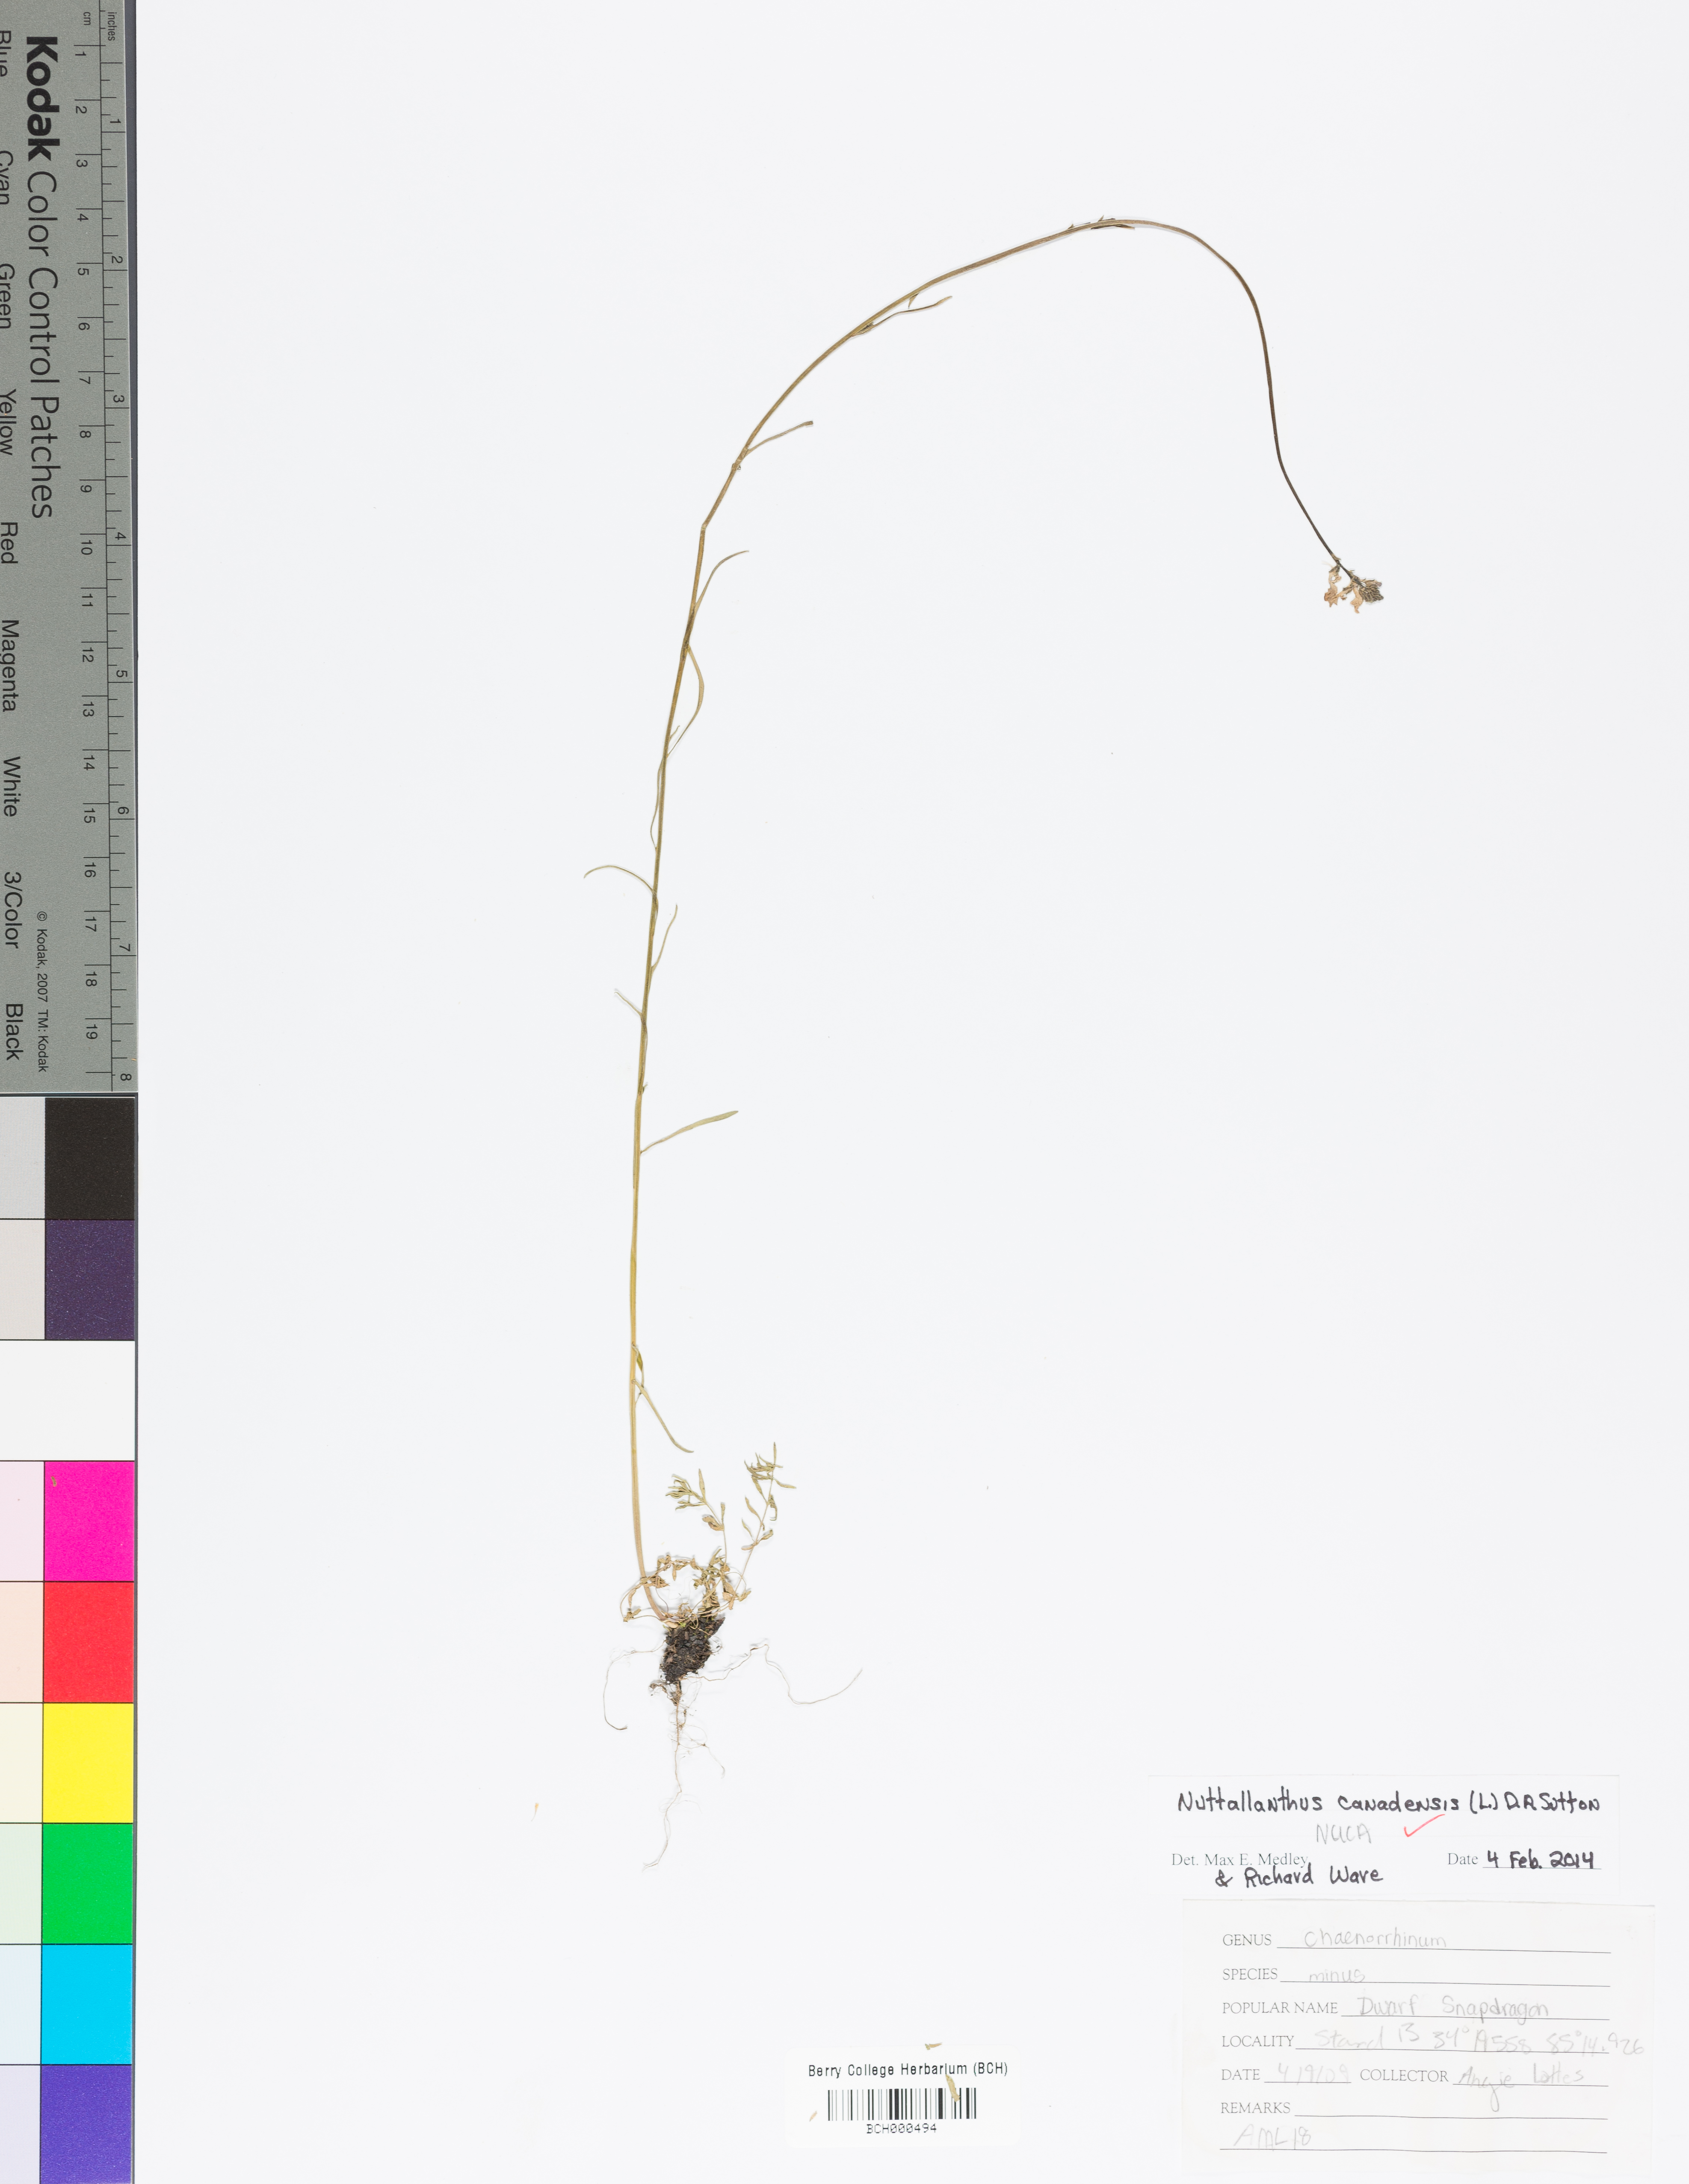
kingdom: Plantae
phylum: Tracheophyta
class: Magnoliopsida
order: Lamiales
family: Plantaginaceae
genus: Nuttallanthus
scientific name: Nuttallanthus canadensis
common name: Blue toadflax
